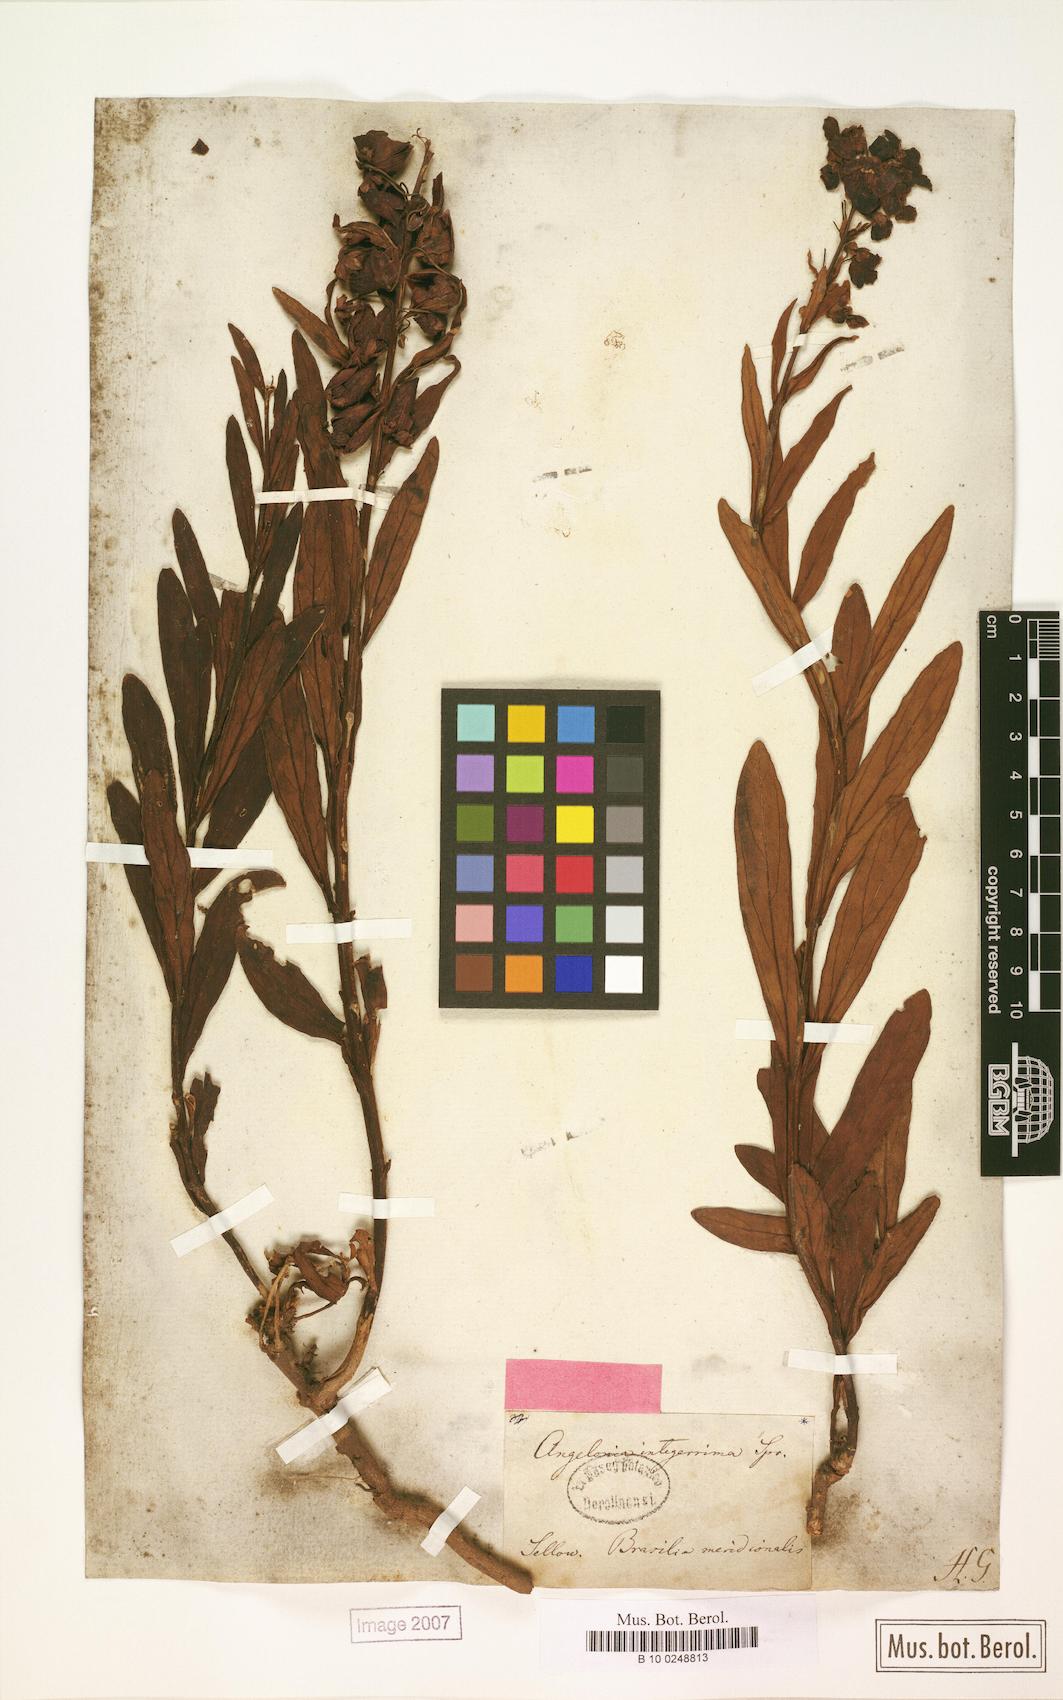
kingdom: Plantae
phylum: Tracheophyta
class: Magnoliopsida
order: Lamiales
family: Plantaginaceae
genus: Angelonia
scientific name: Angelonia integerrima
